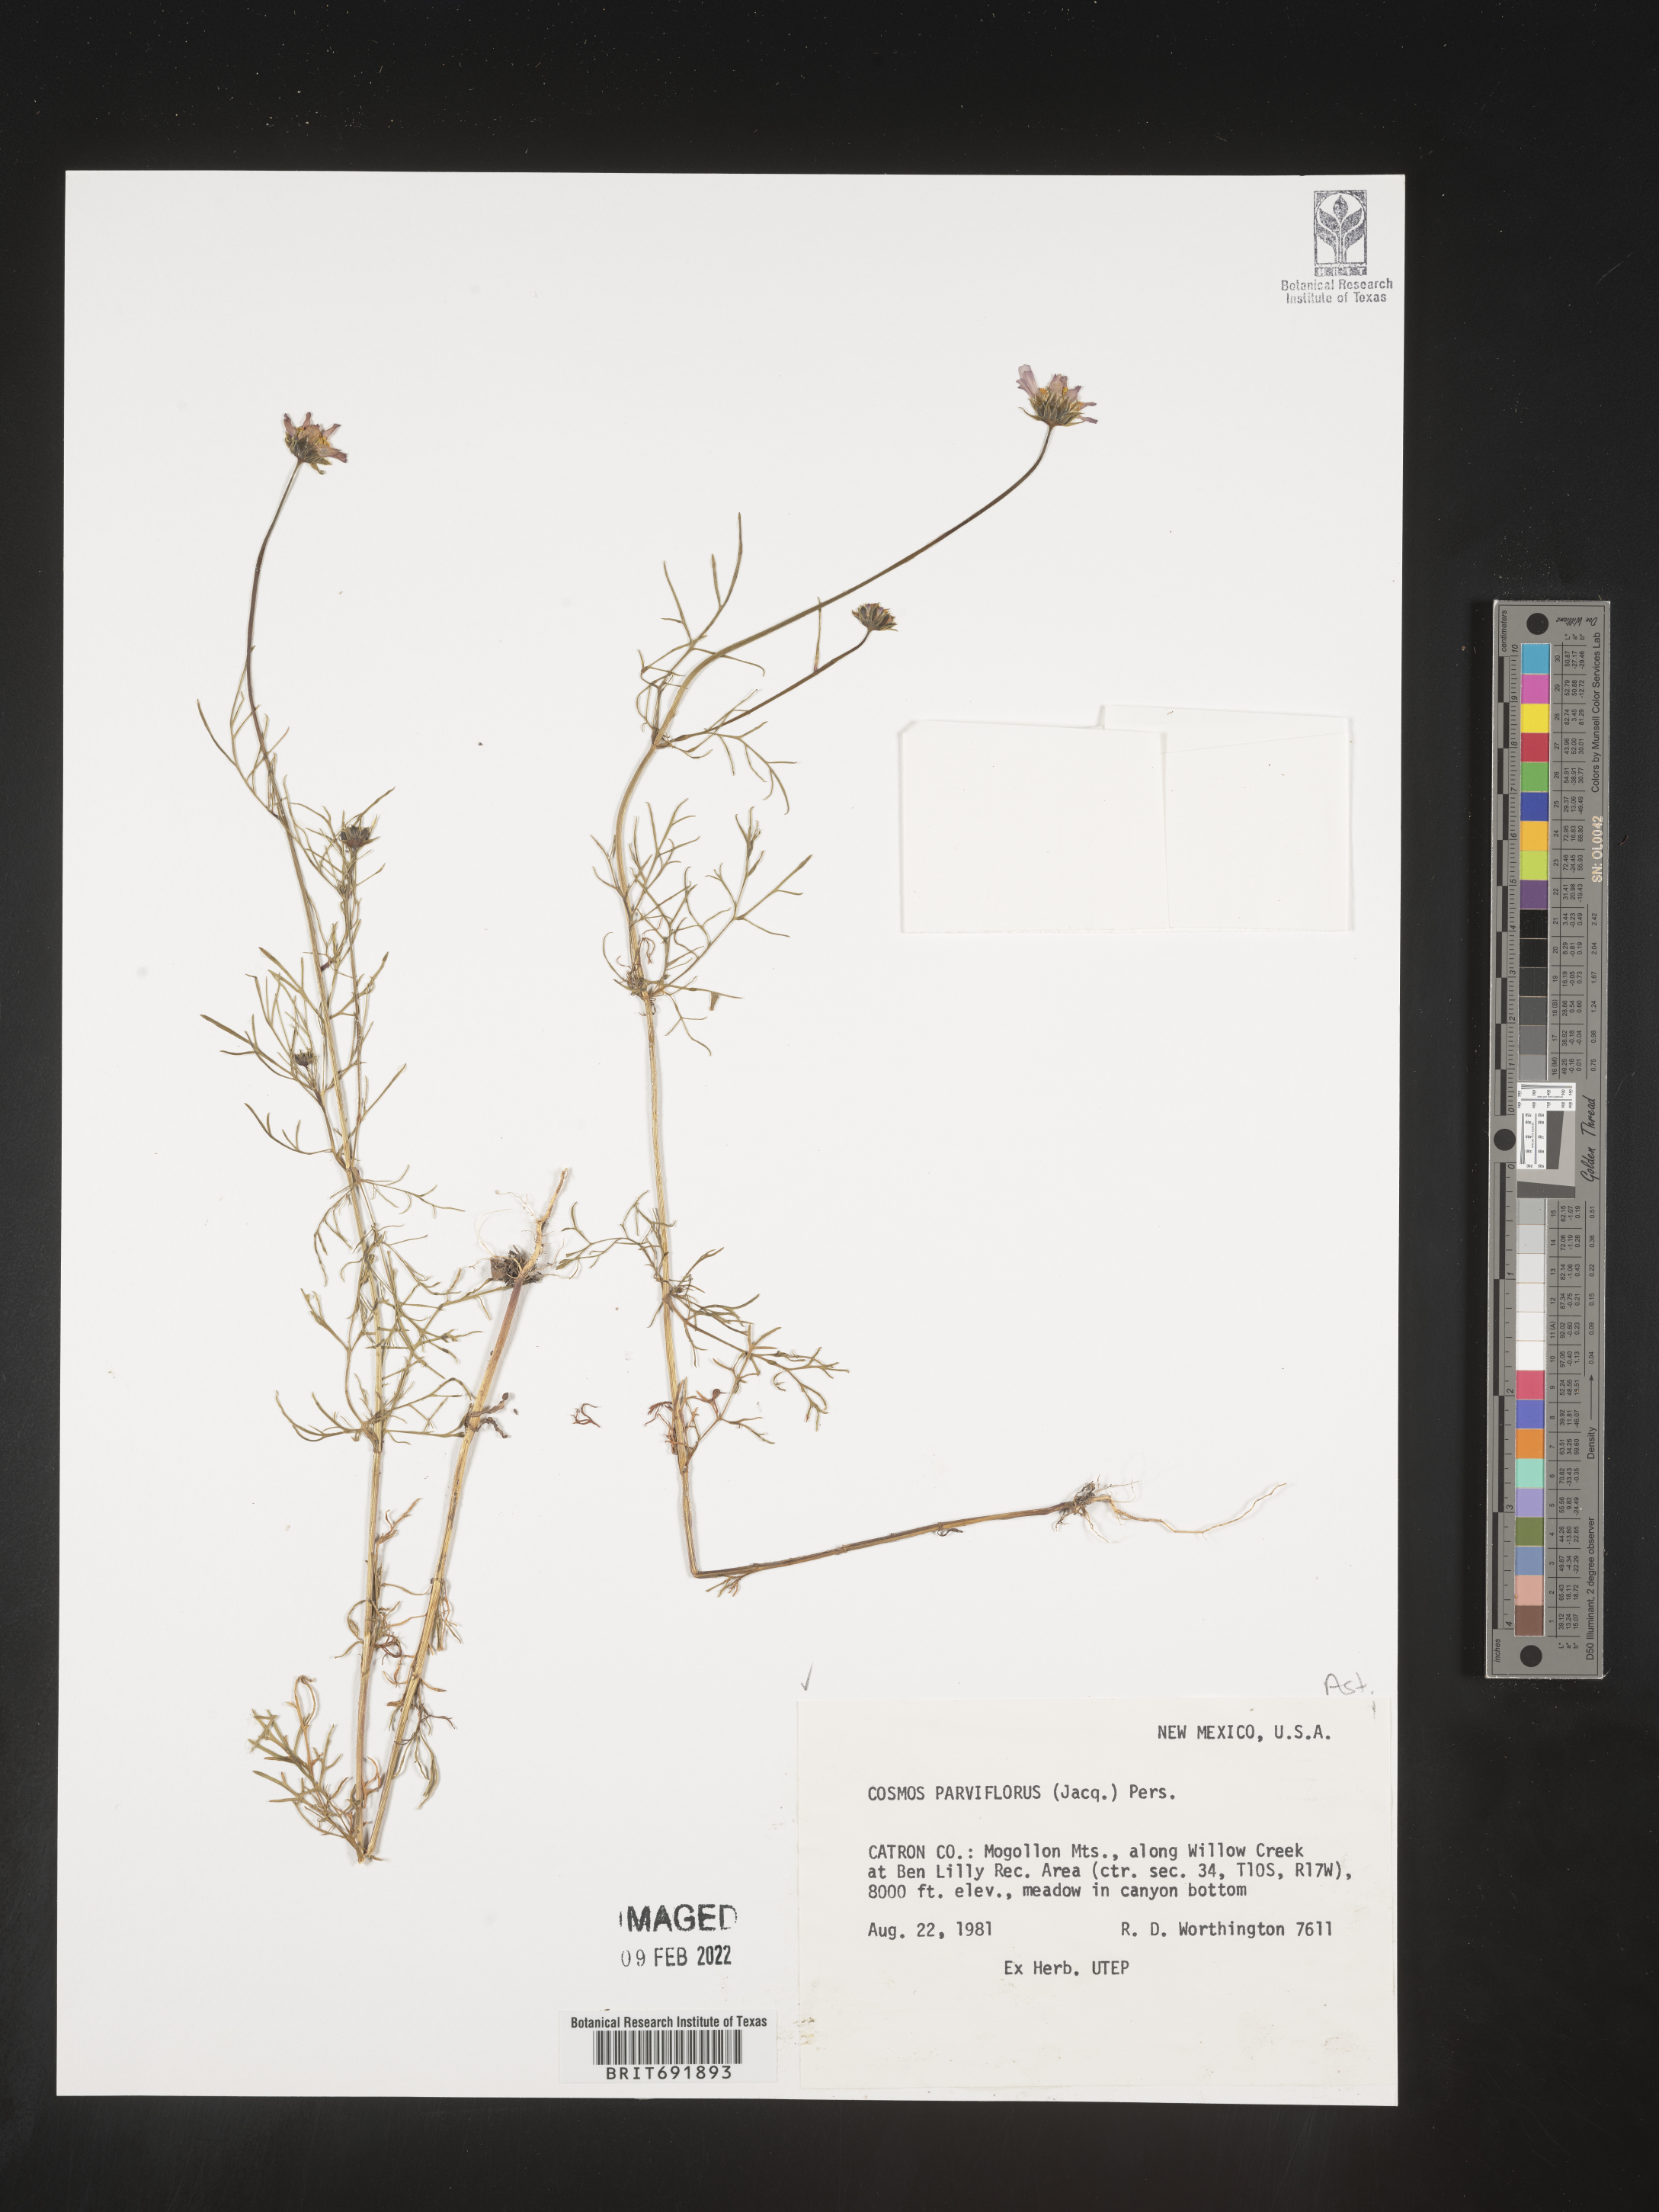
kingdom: Plantae
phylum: Tracheophyta
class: Magnoliopsida
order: Asterales
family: Asteraceae
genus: Cosmos
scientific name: Cosmos
